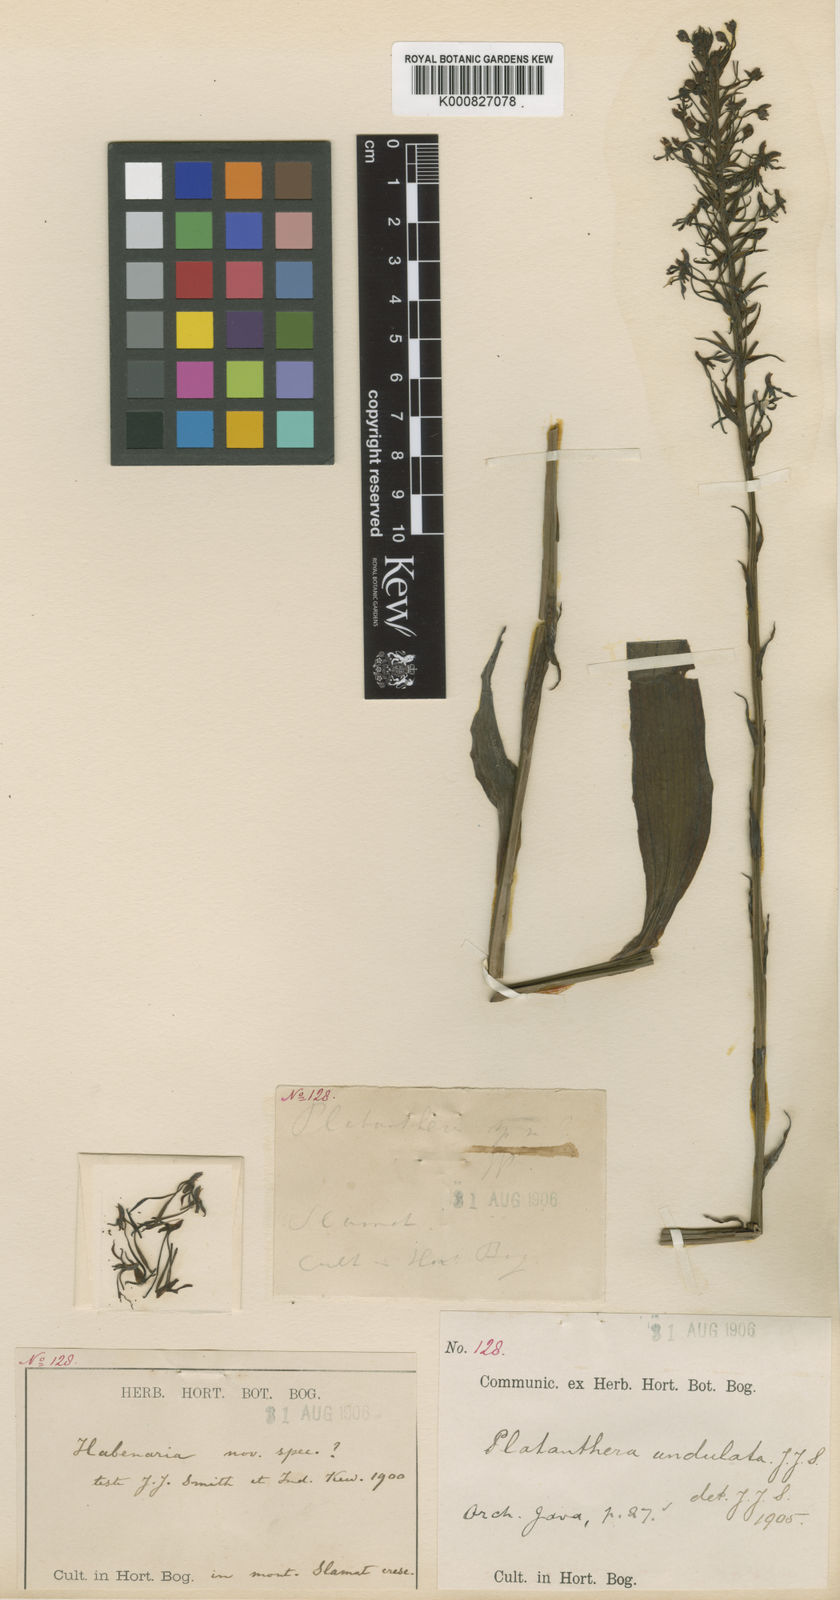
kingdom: Plantae
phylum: Tracheophyta
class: Liliopsida
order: Asparagales
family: Orchidaceae
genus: Habenaria
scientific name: Habenaria undatifolia
